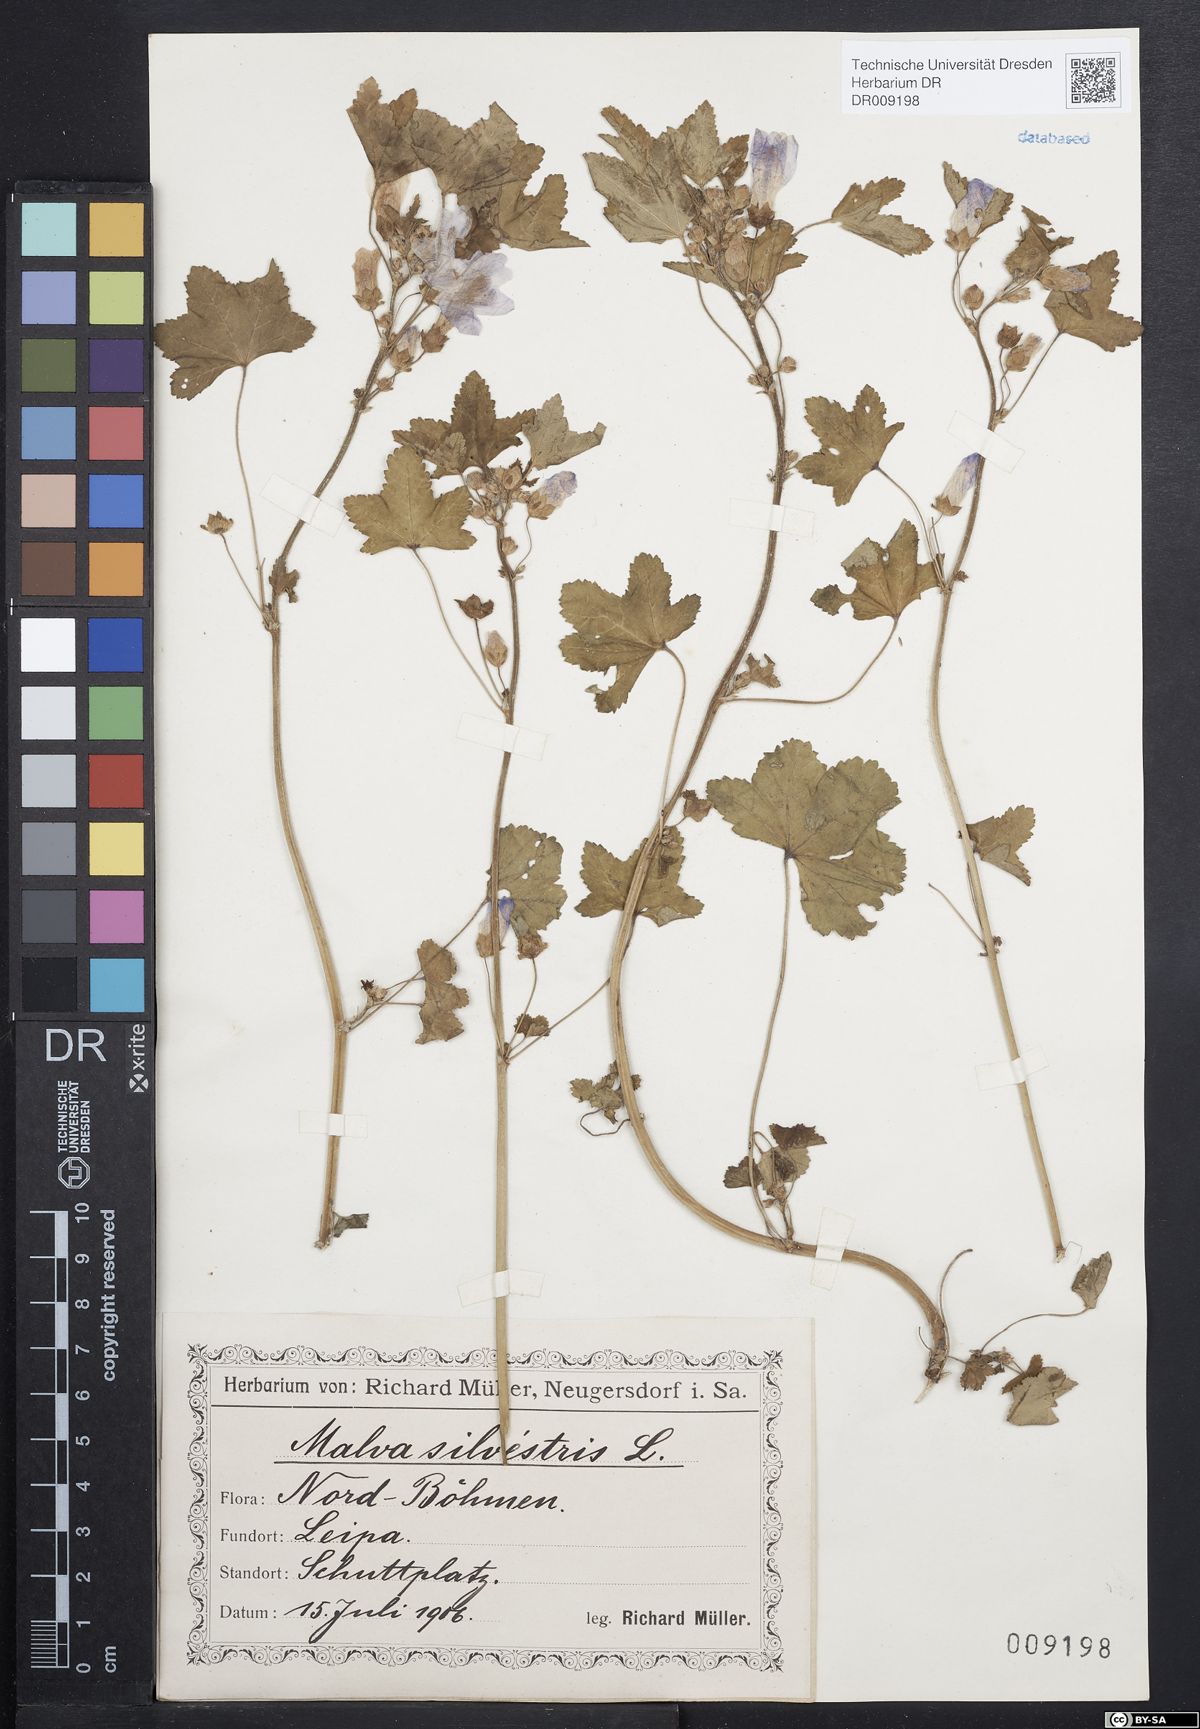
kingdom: Plantae
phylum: Tracheophyta
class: Magnoliopsida
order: Malvales
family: Malvaceae
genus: Malva
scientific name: Malva sylvestris
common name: Common mallow
